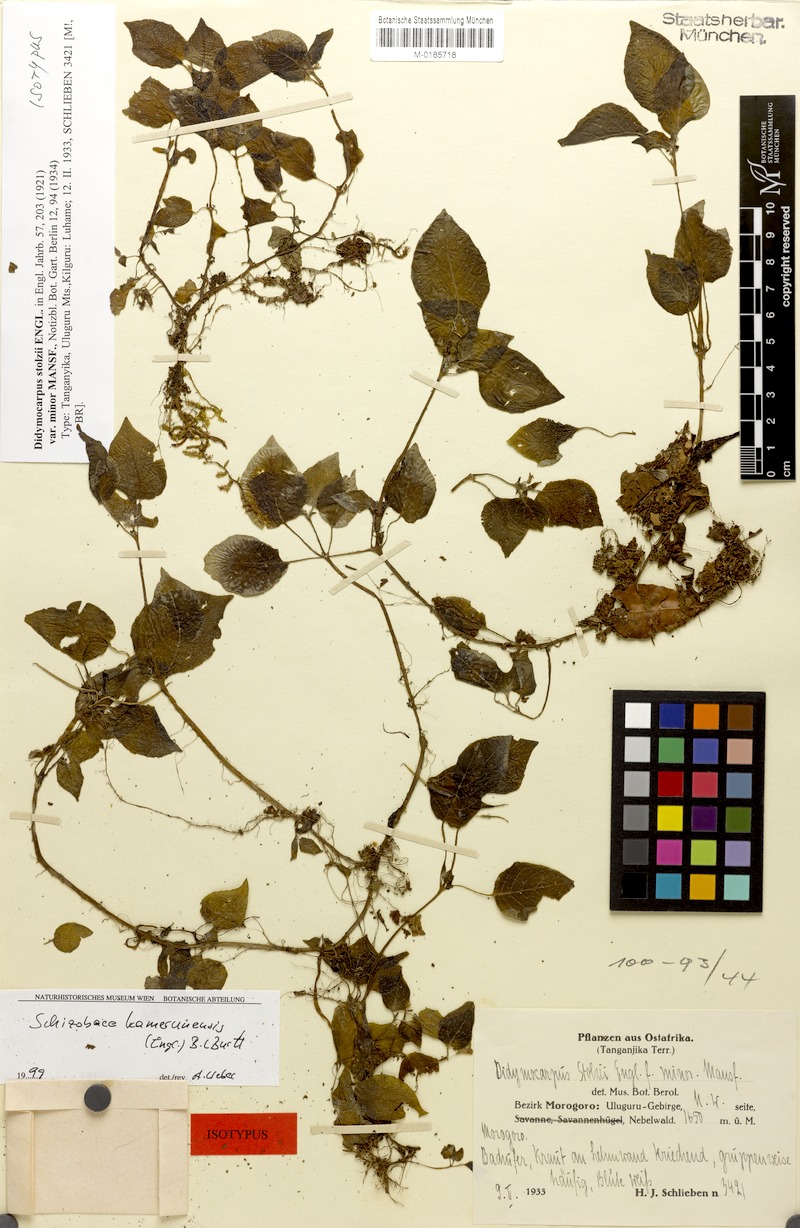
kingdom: Plantae
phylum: Tracheophyta
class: Magnoliopsida
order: Lamiales
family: Gesneriaceae
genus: Streptocarpus
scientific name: Streptocarpus kamerunensis
